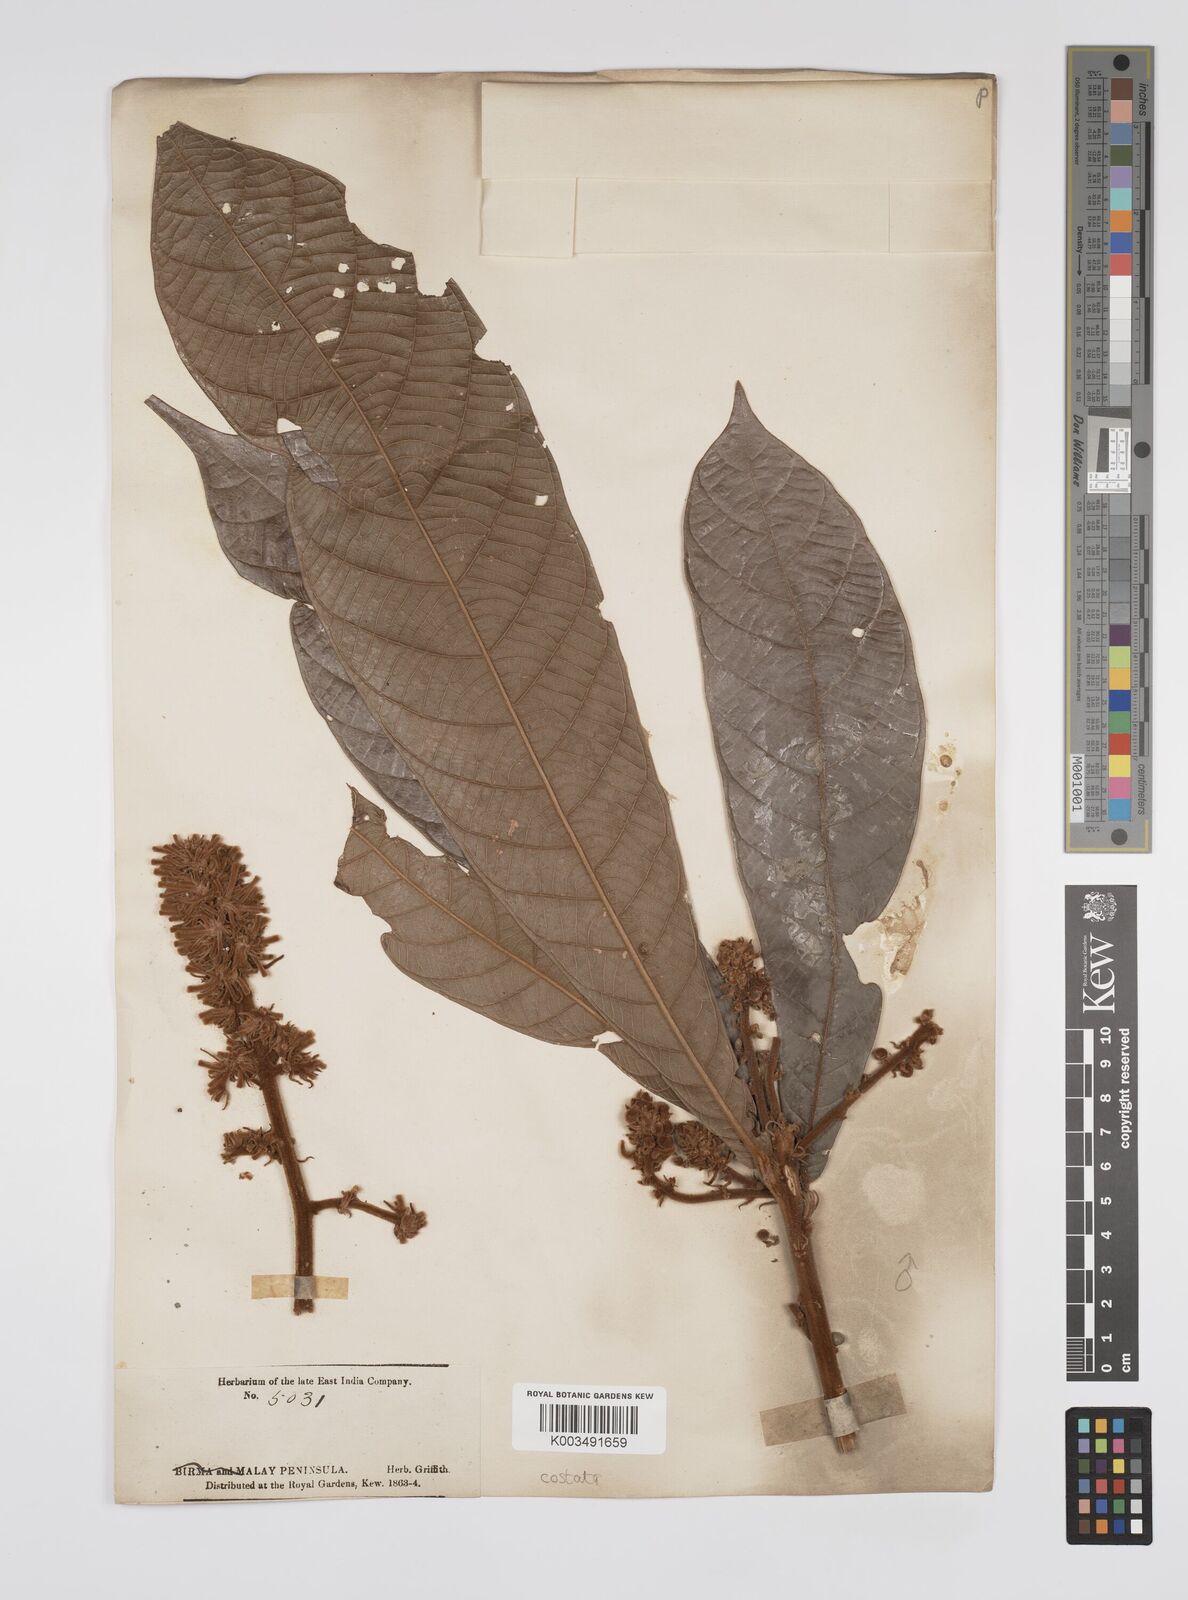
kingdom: Plantae
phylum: Tracheophyta
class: Magnoliopsida
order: Malpighiales
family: Euphorbiaceae
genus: Ptychopyxis
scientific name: Ptychopyxis costata
